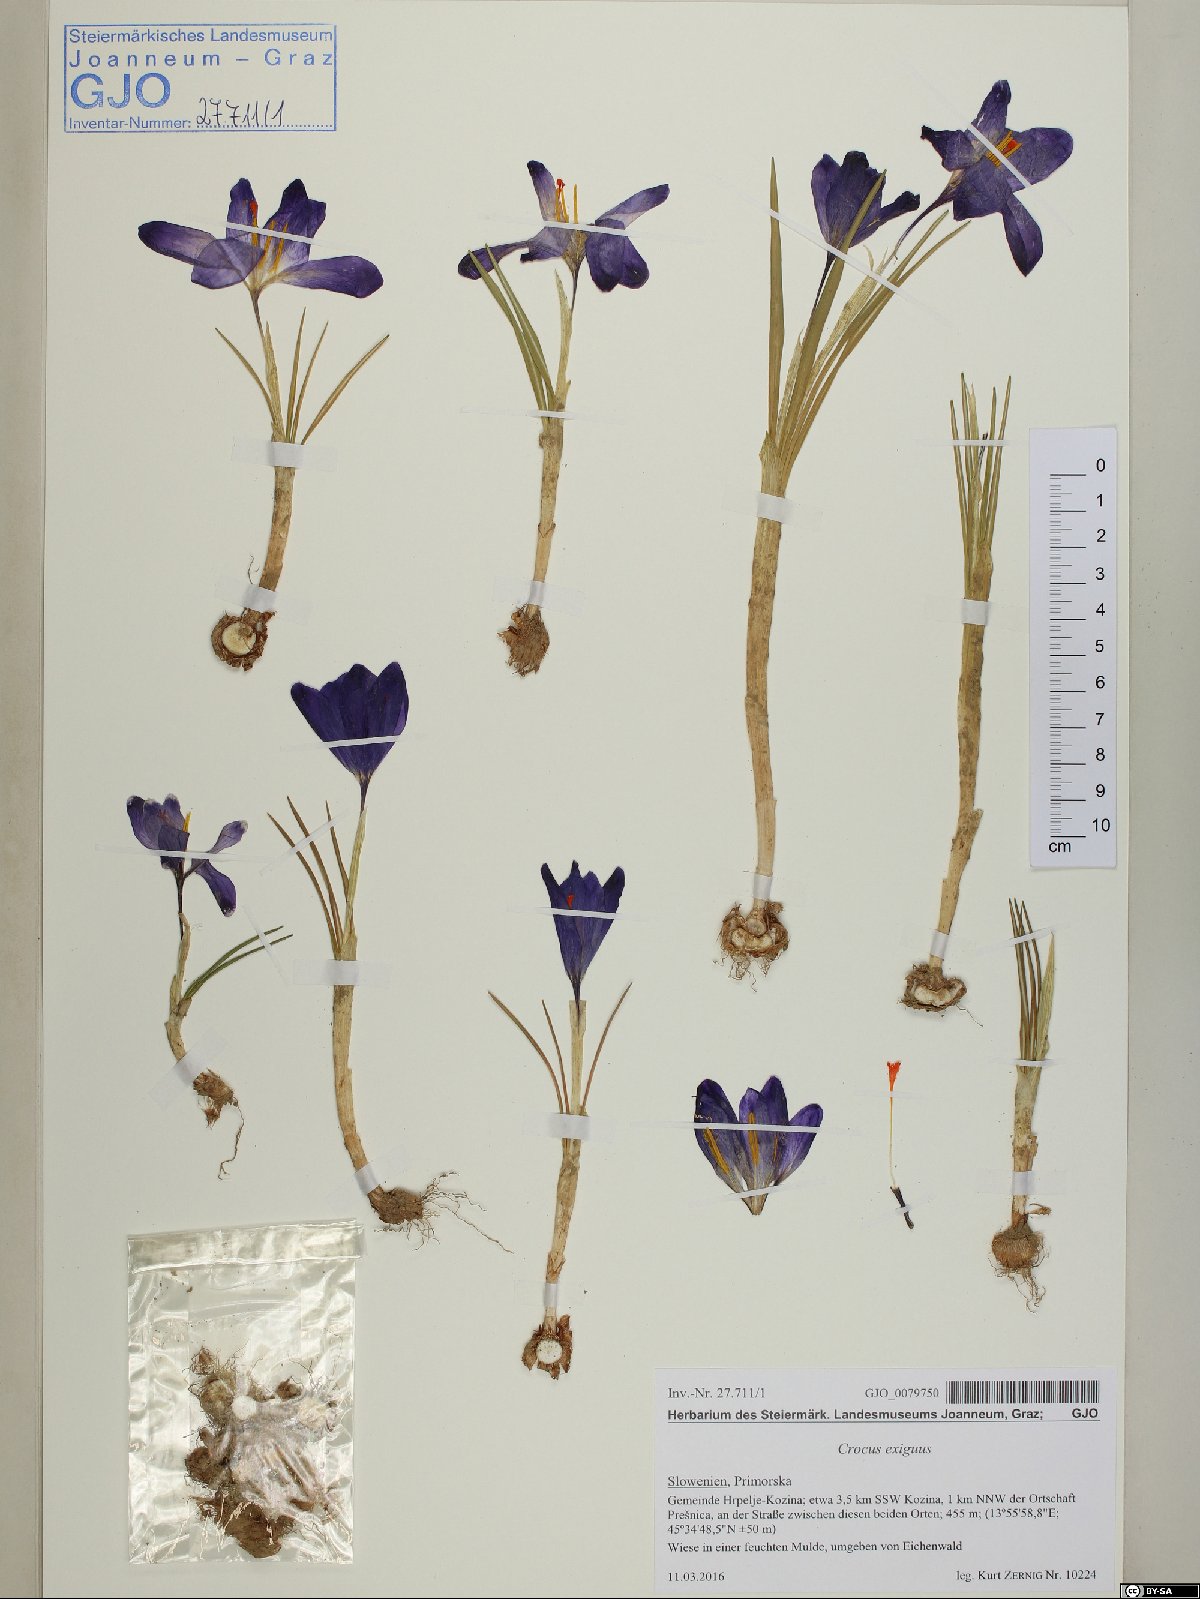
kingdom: Plantae
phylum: Tracheophyta
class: Liliopsida
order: Asparagales
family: Iridaceae
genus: Crocus
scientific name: Crocus heuffelianus
